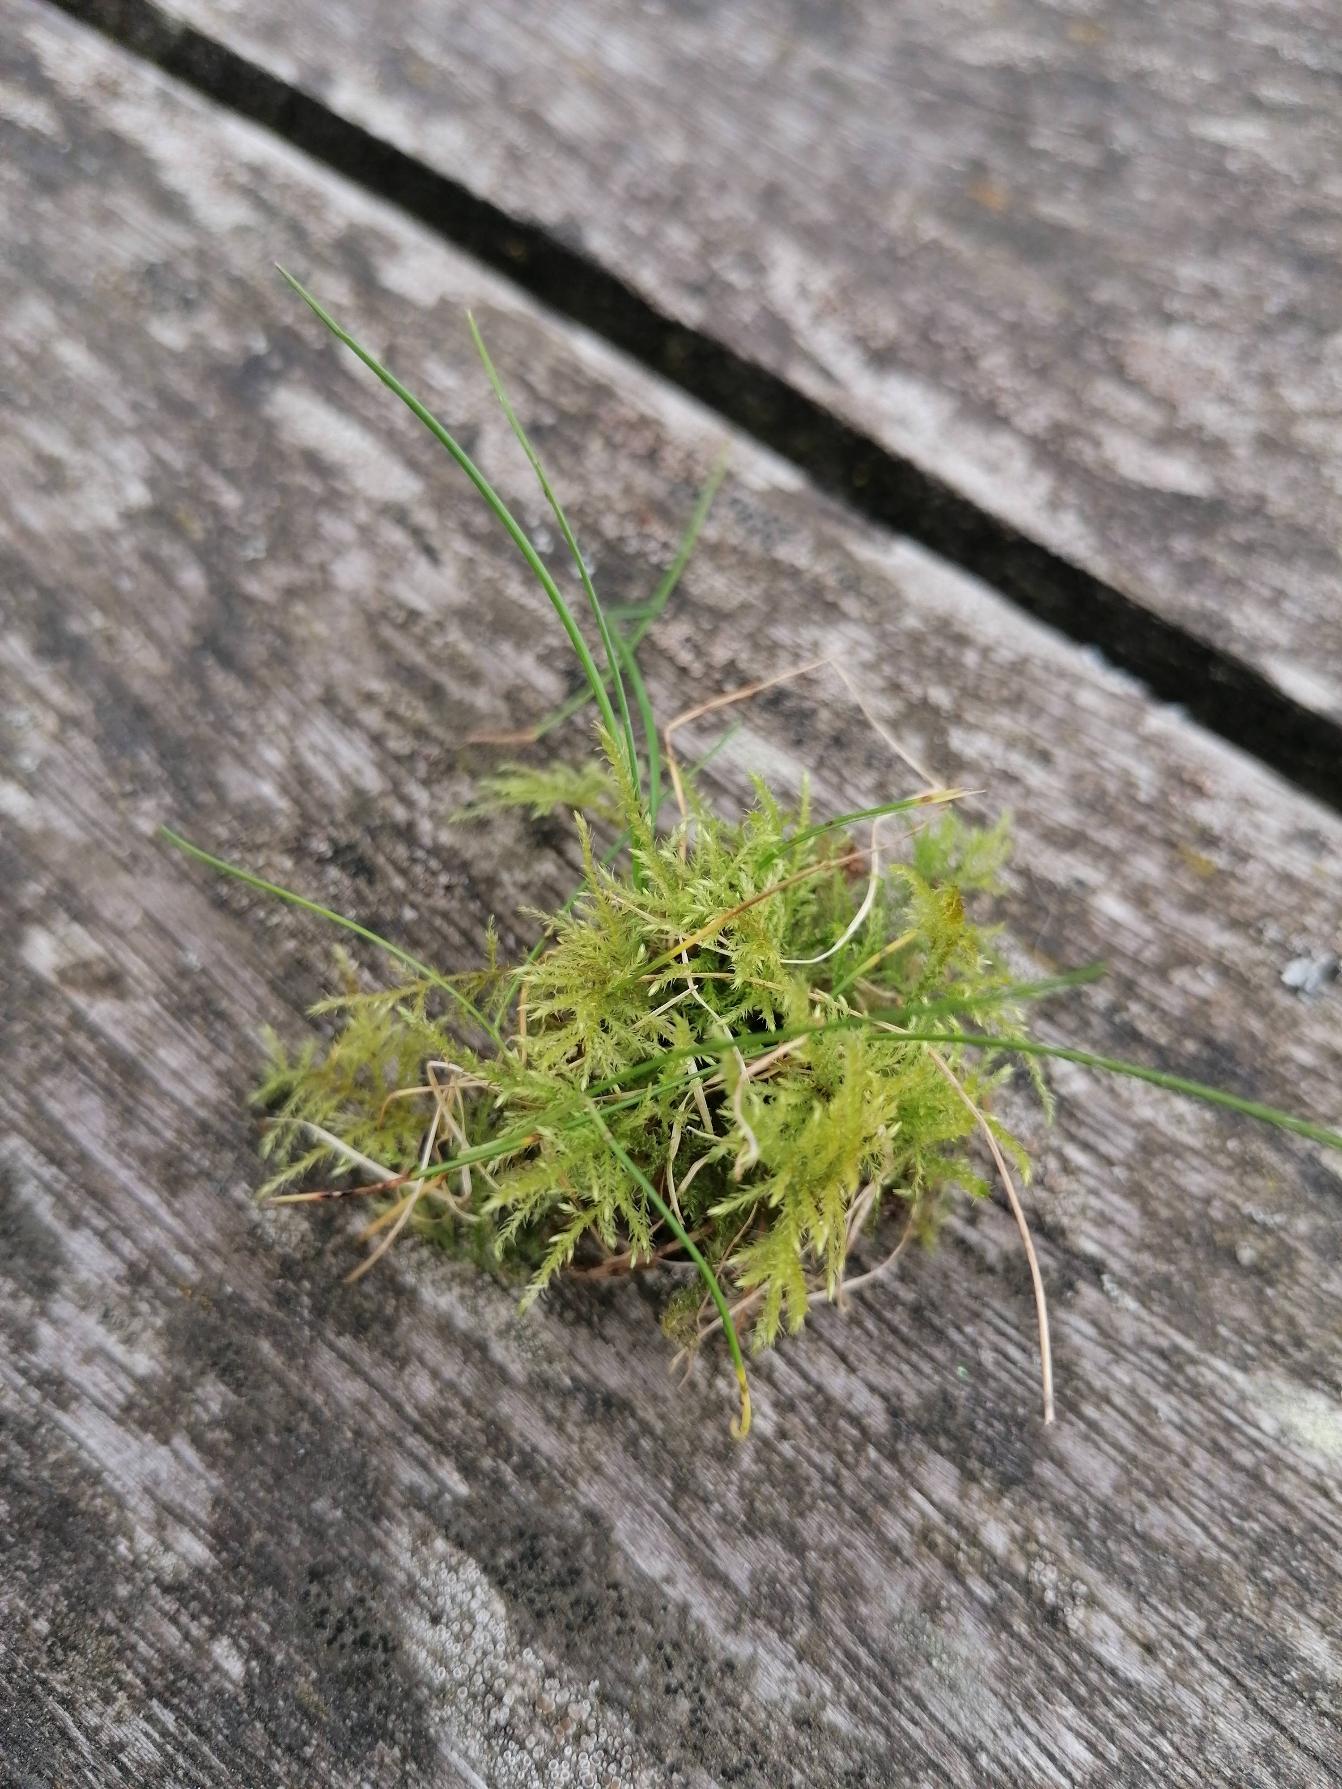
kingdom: Plantae
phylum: Bryophyta
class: Bryopsida
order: Hypnales
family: Brachytheciaceae
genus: Kindbergia
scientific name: Kindbergia praelonga
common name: Forskelligbladet vortetand
